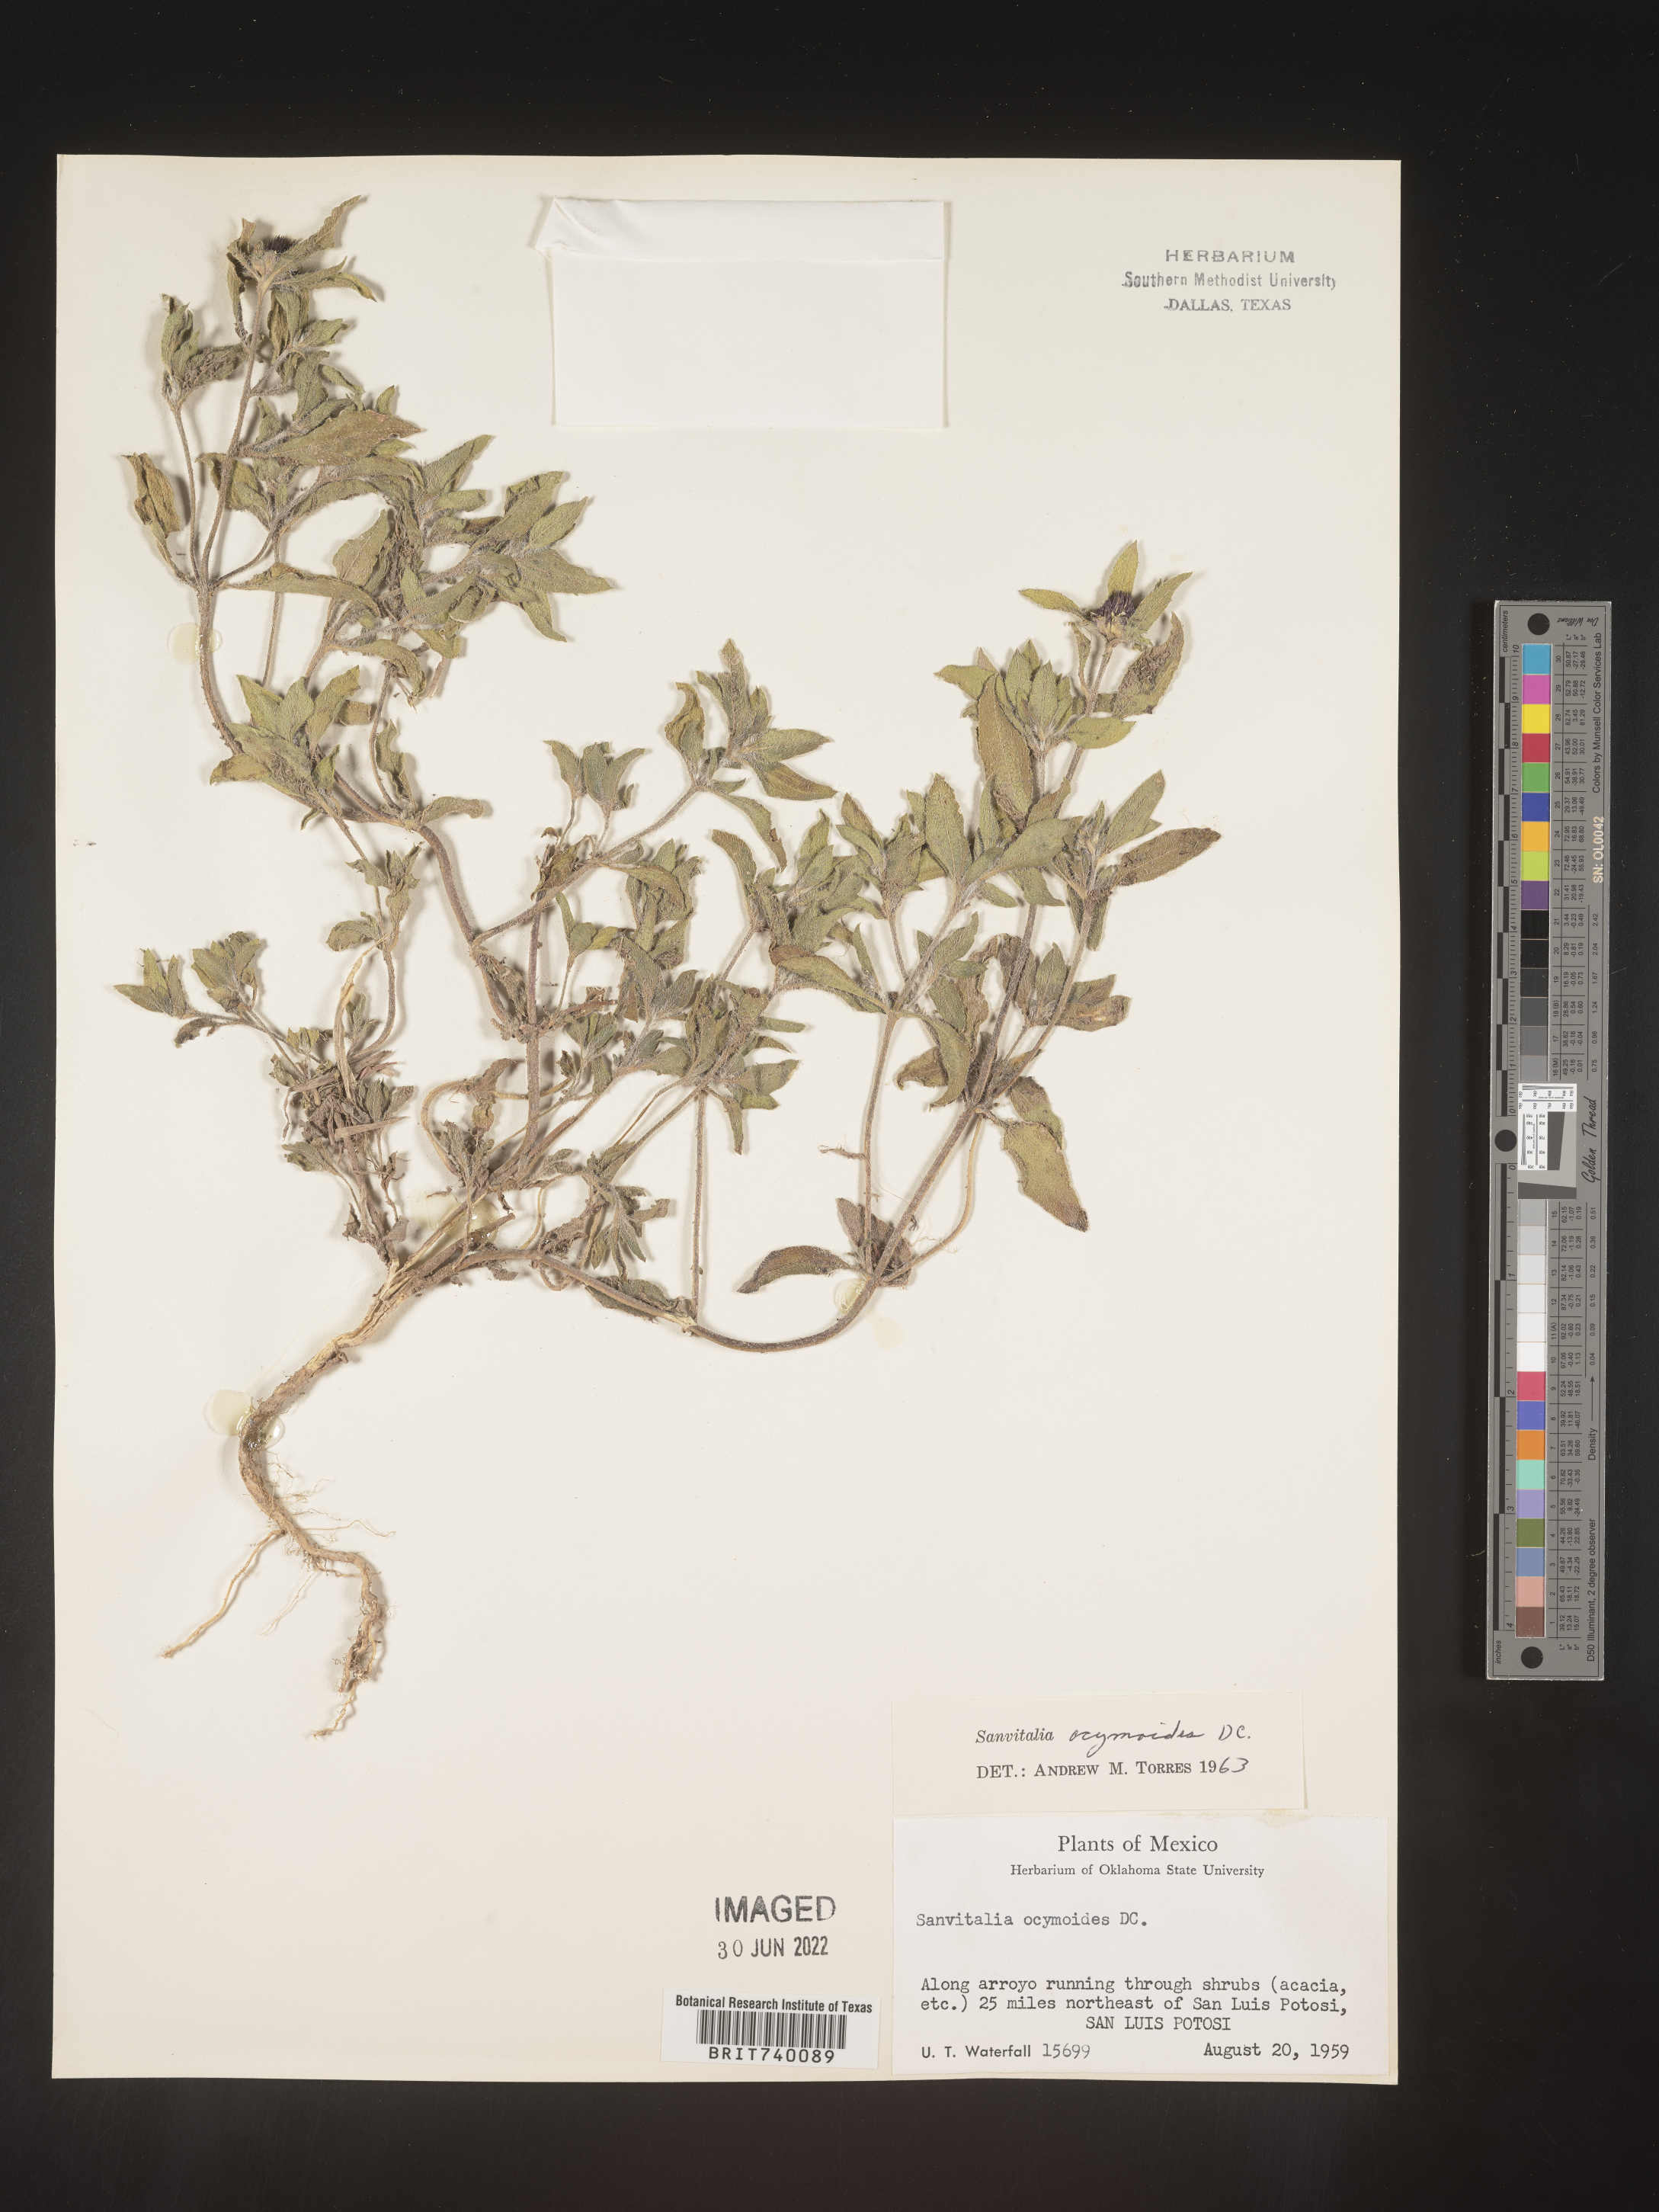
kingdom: Plantae
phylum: Tracheophyta
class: Magnoliopsida
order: Asterales
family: Asteraceae
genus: Sanvitalia
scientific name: Sanvitalia
